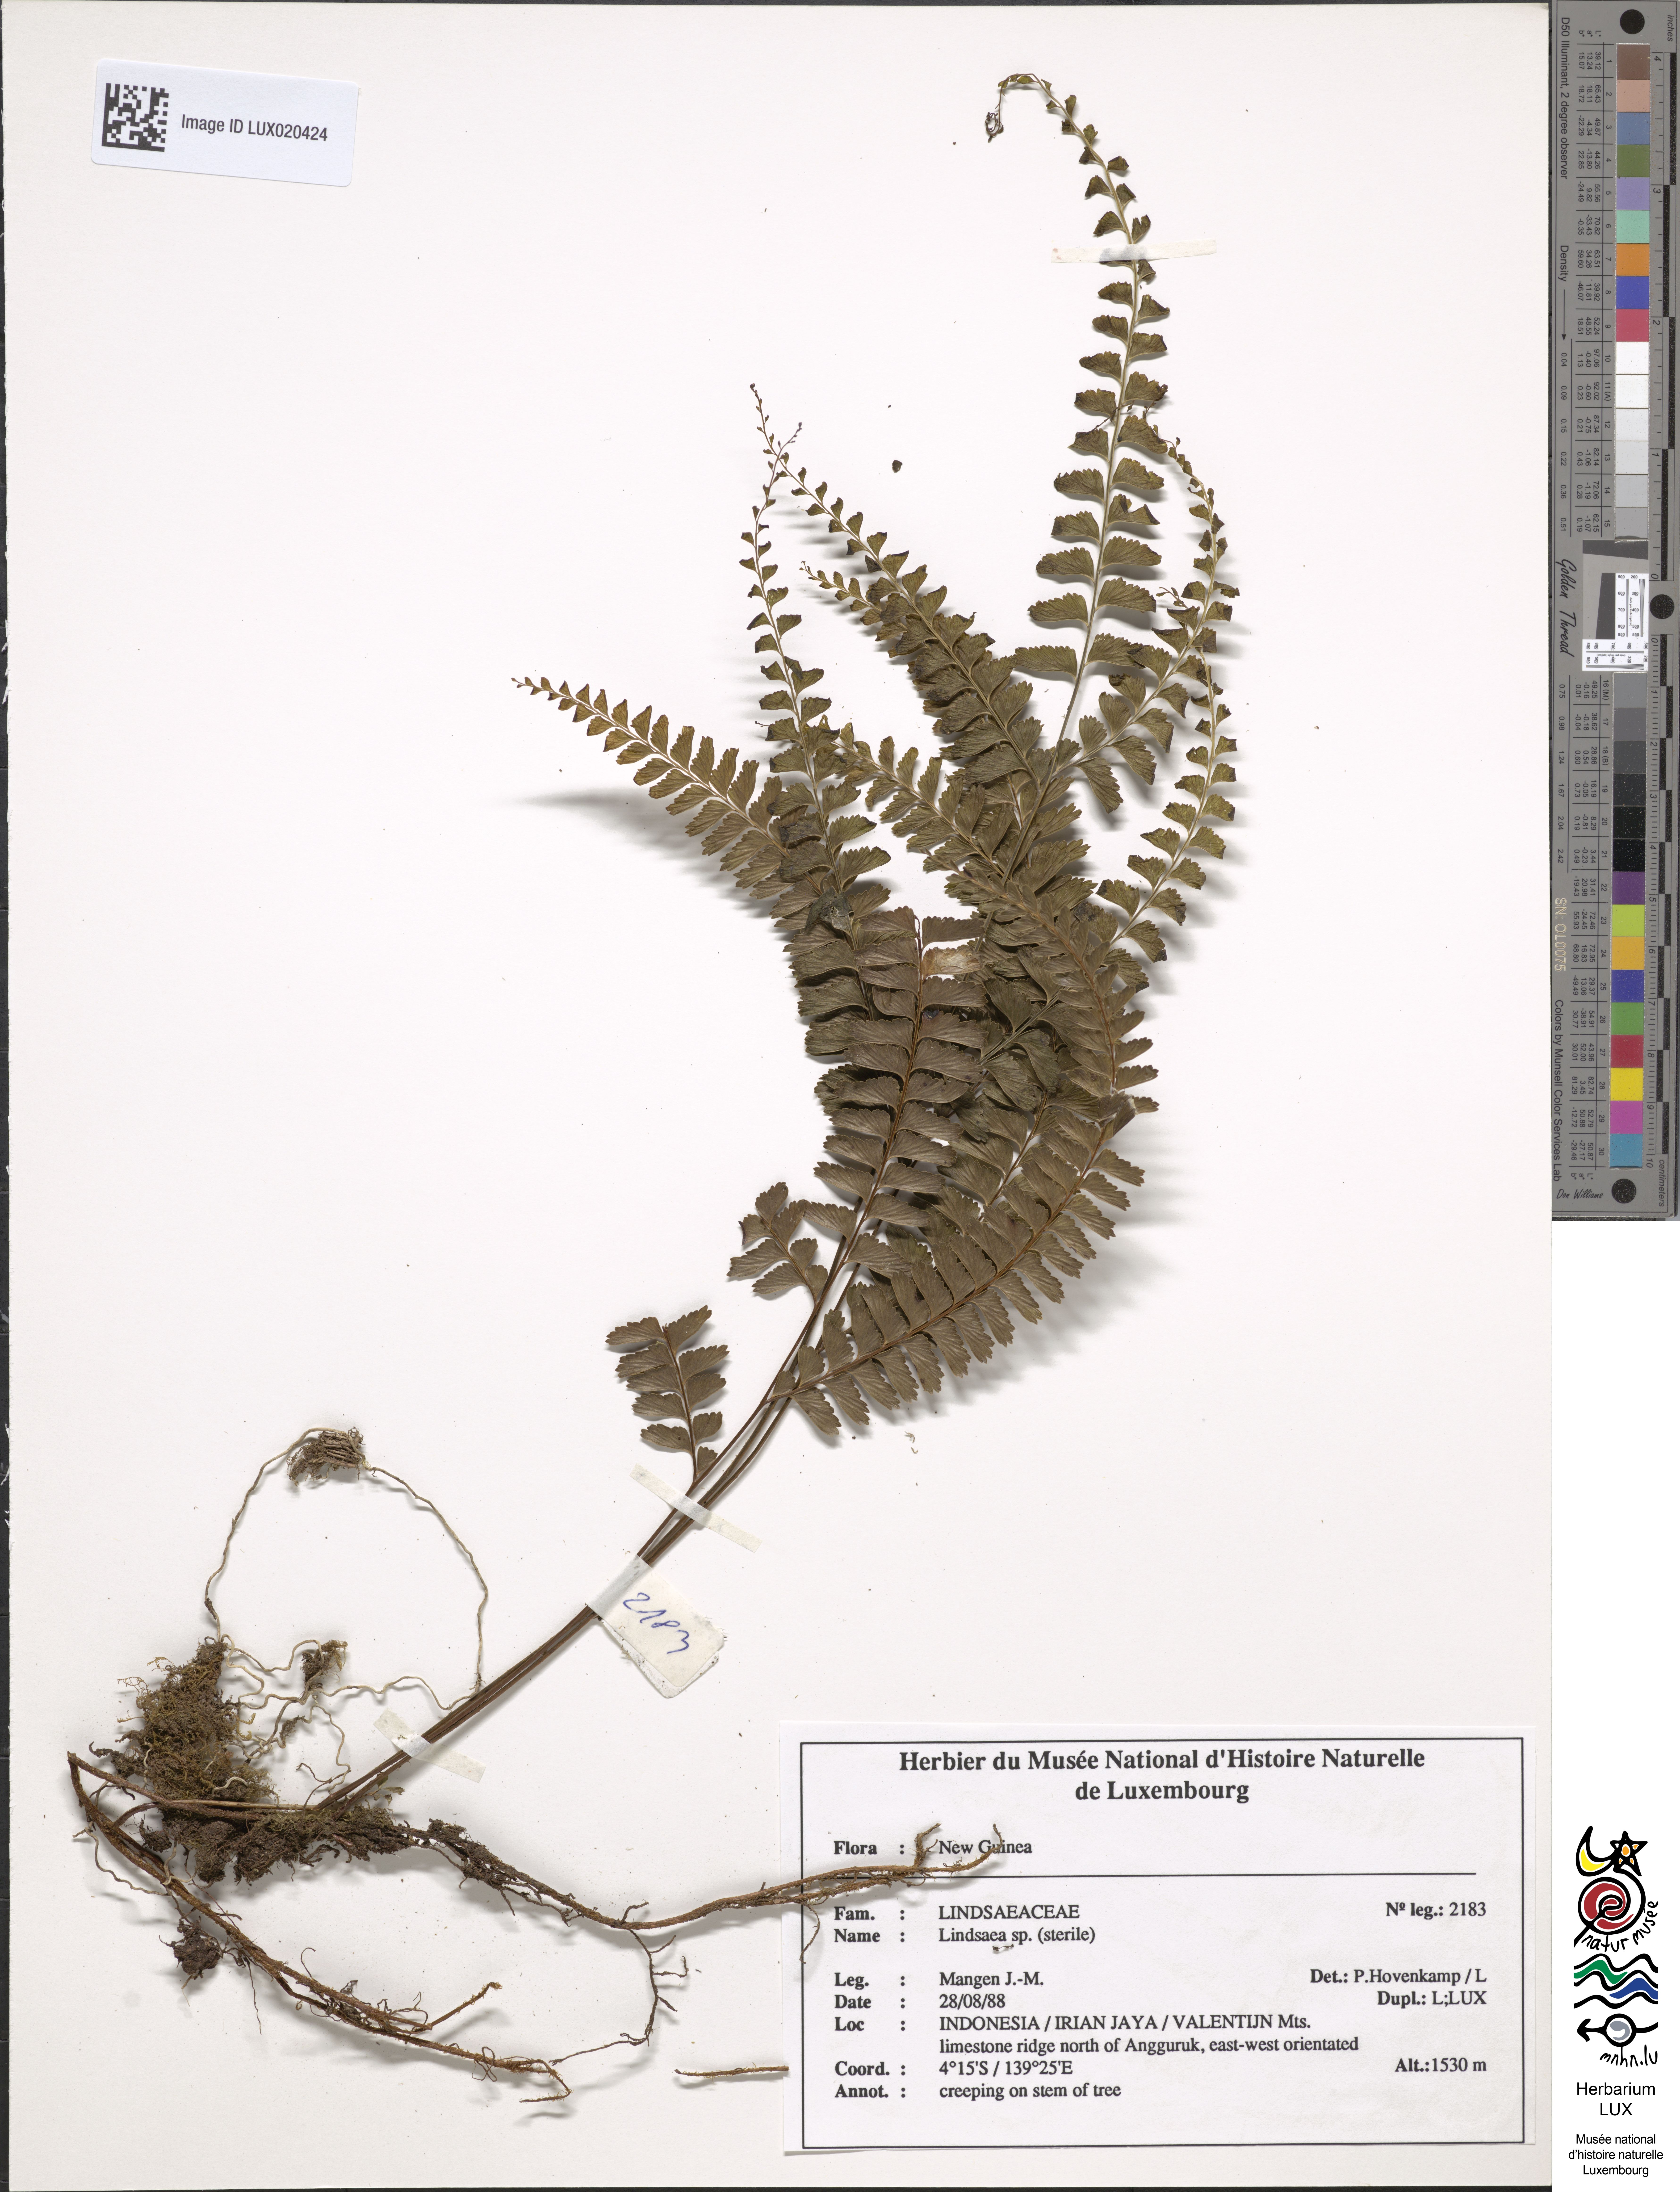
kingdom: Plantae
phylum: Tracheophyta
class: Polypodiopsida
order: Polypodiales
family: Lindsaeaceae
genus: Lindsaea
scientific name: Lindsaea
